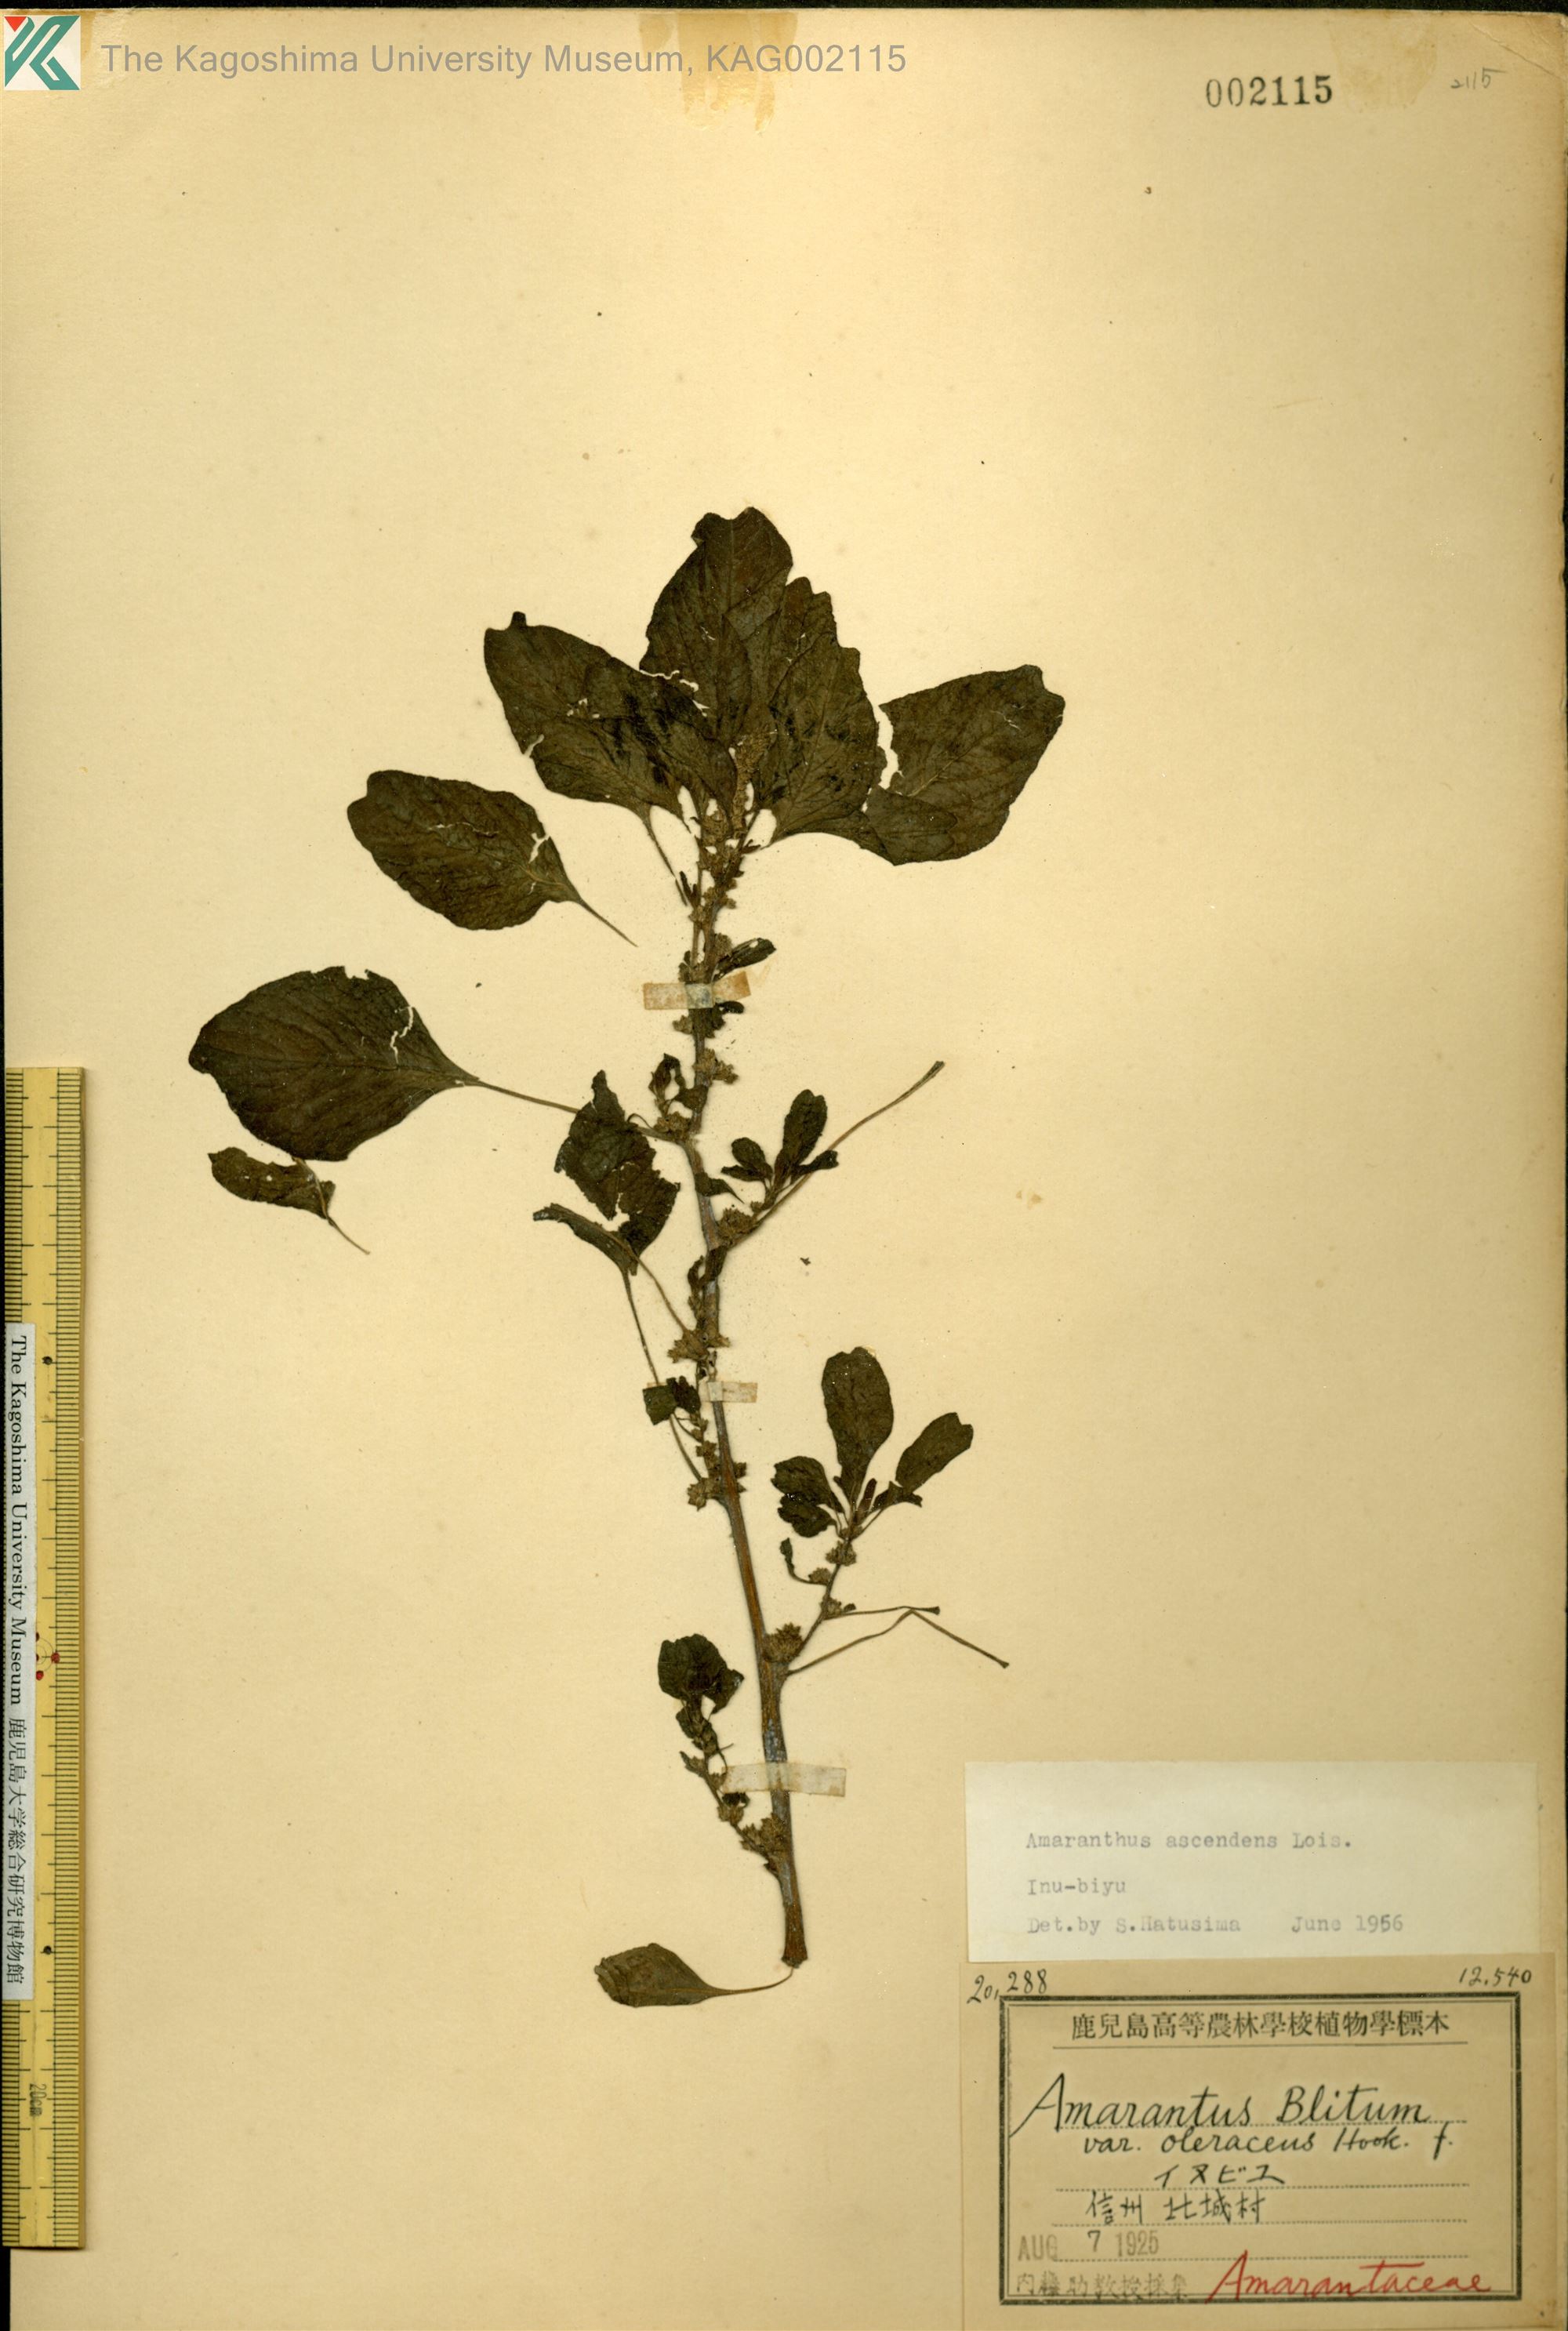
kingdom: Plantae
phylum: Tracheophyta
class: Magnoliopsida
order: Caryophyllales
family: Amaranthaceae
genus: Amaranthus
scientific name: Amaranthus blitum
